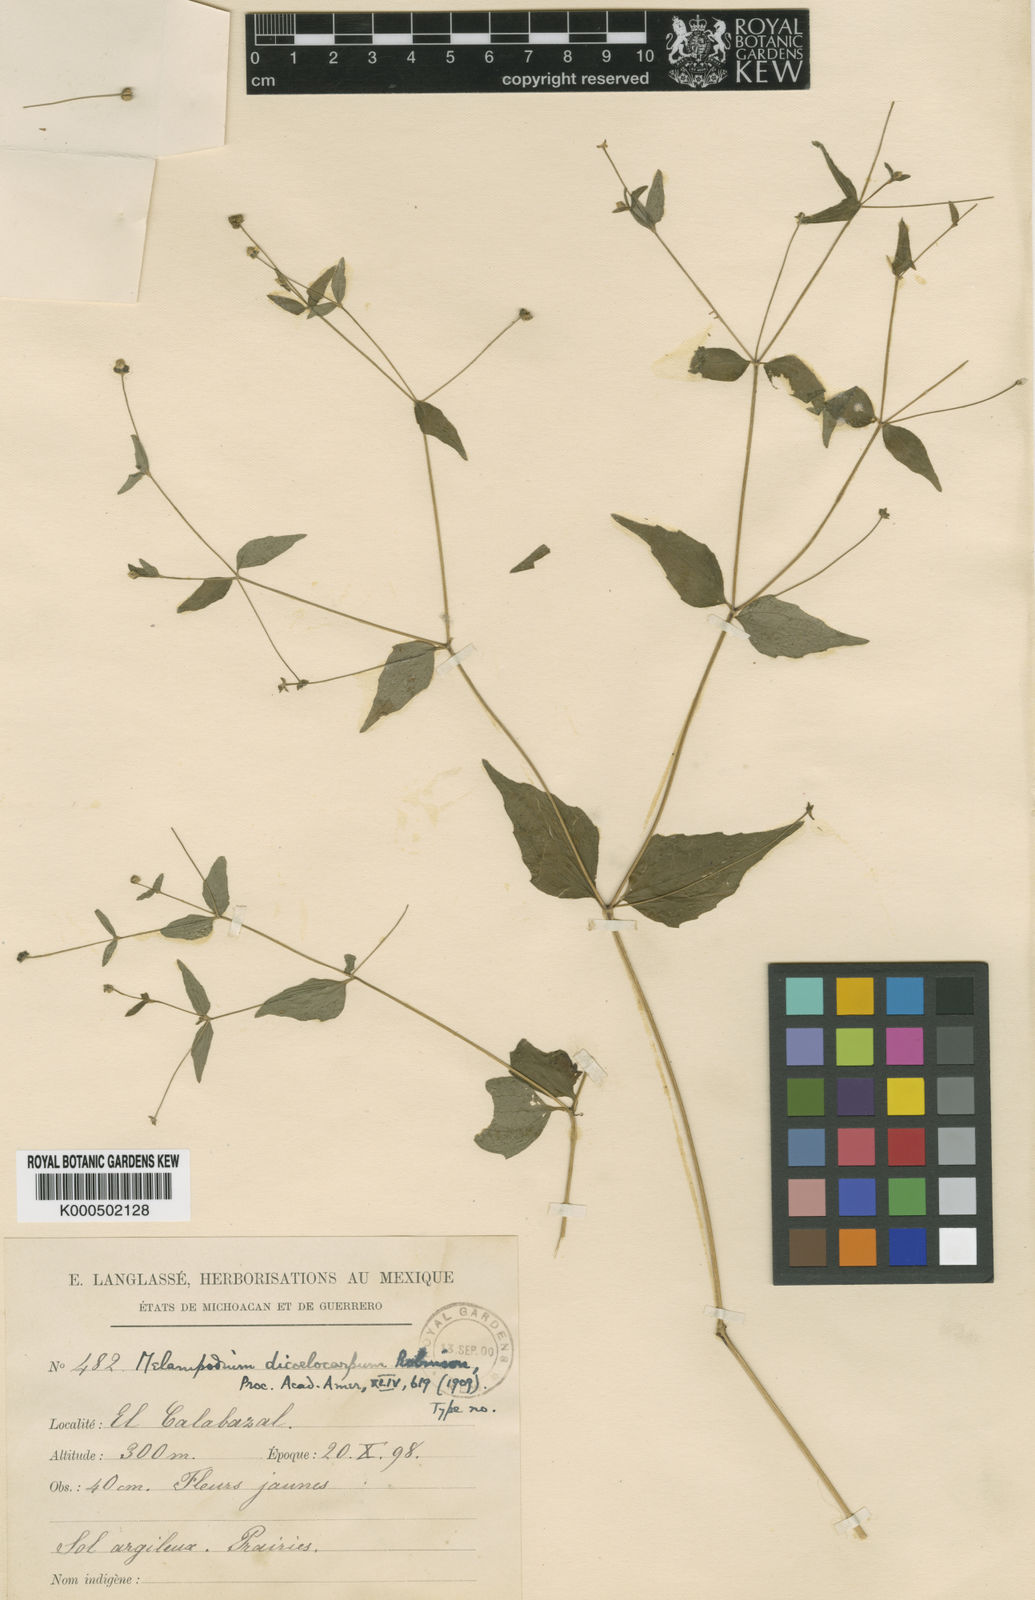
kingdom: Plantae
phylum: Tracheophyta
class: Magnoliopsida
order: Asterales
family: Asteraceae
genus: Melampodium
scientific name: Melampodium dicoelocarpum
